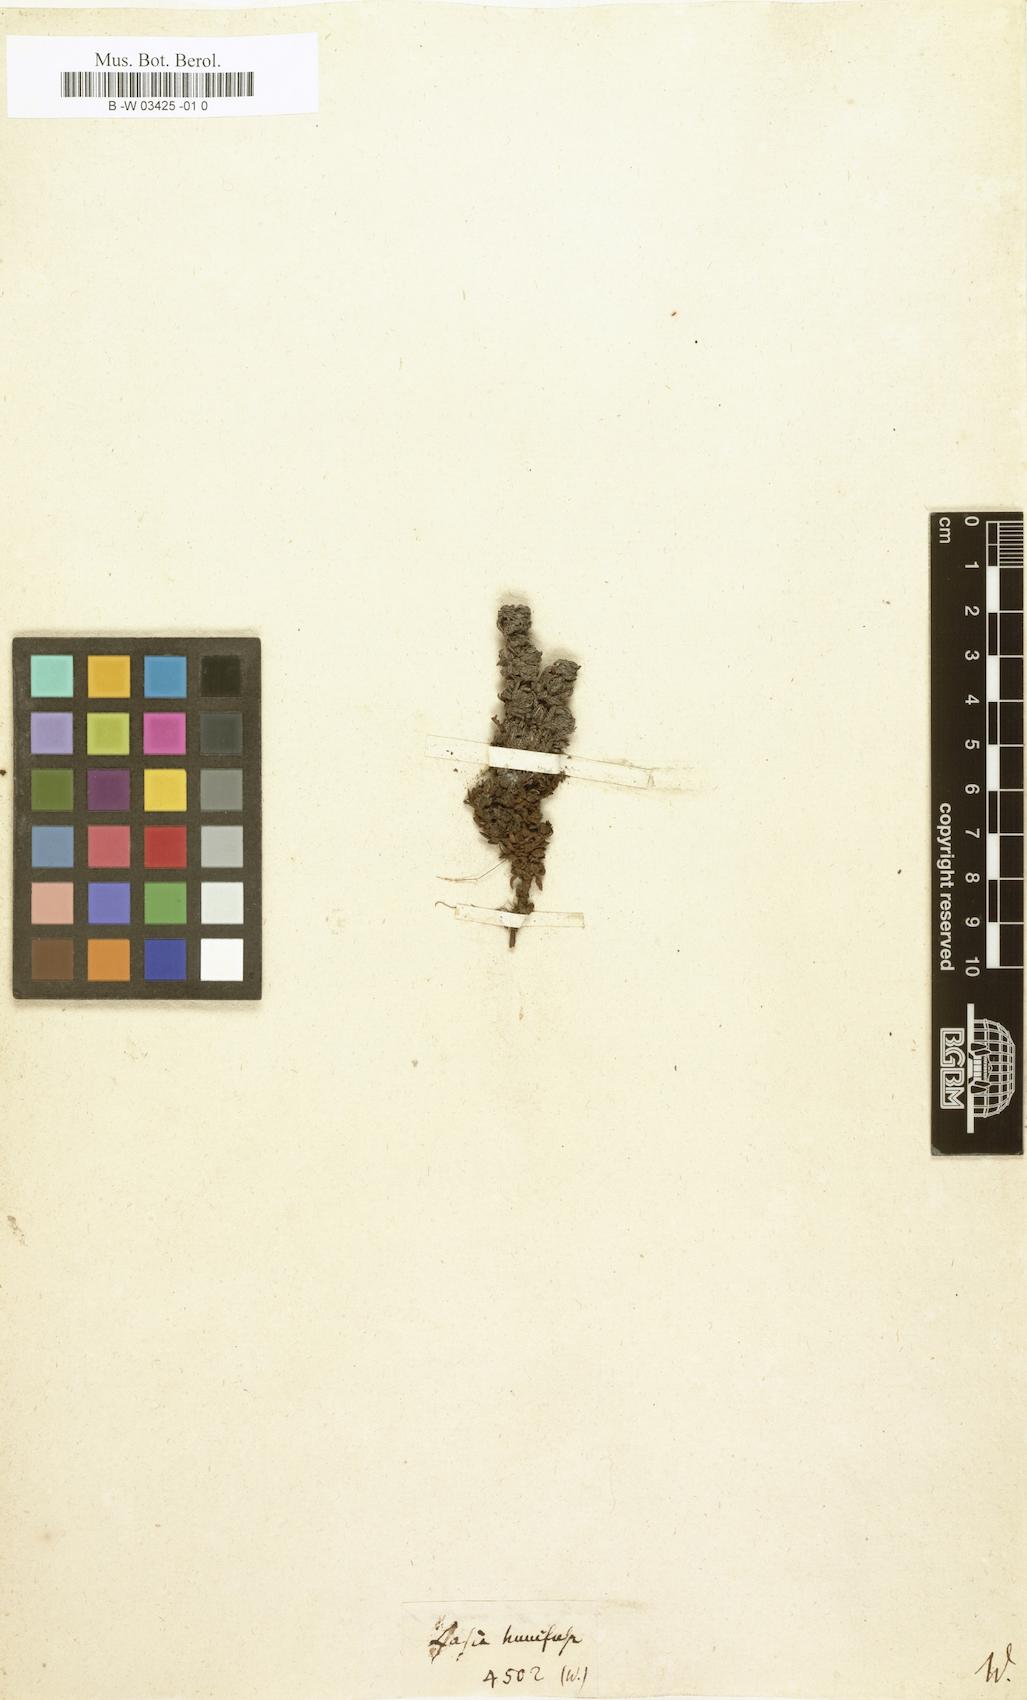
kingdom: Plantae
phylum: Tracheophyta
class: Liliopsida
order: Alismatales
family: Araceae
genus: Lasia
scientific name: Lasia
